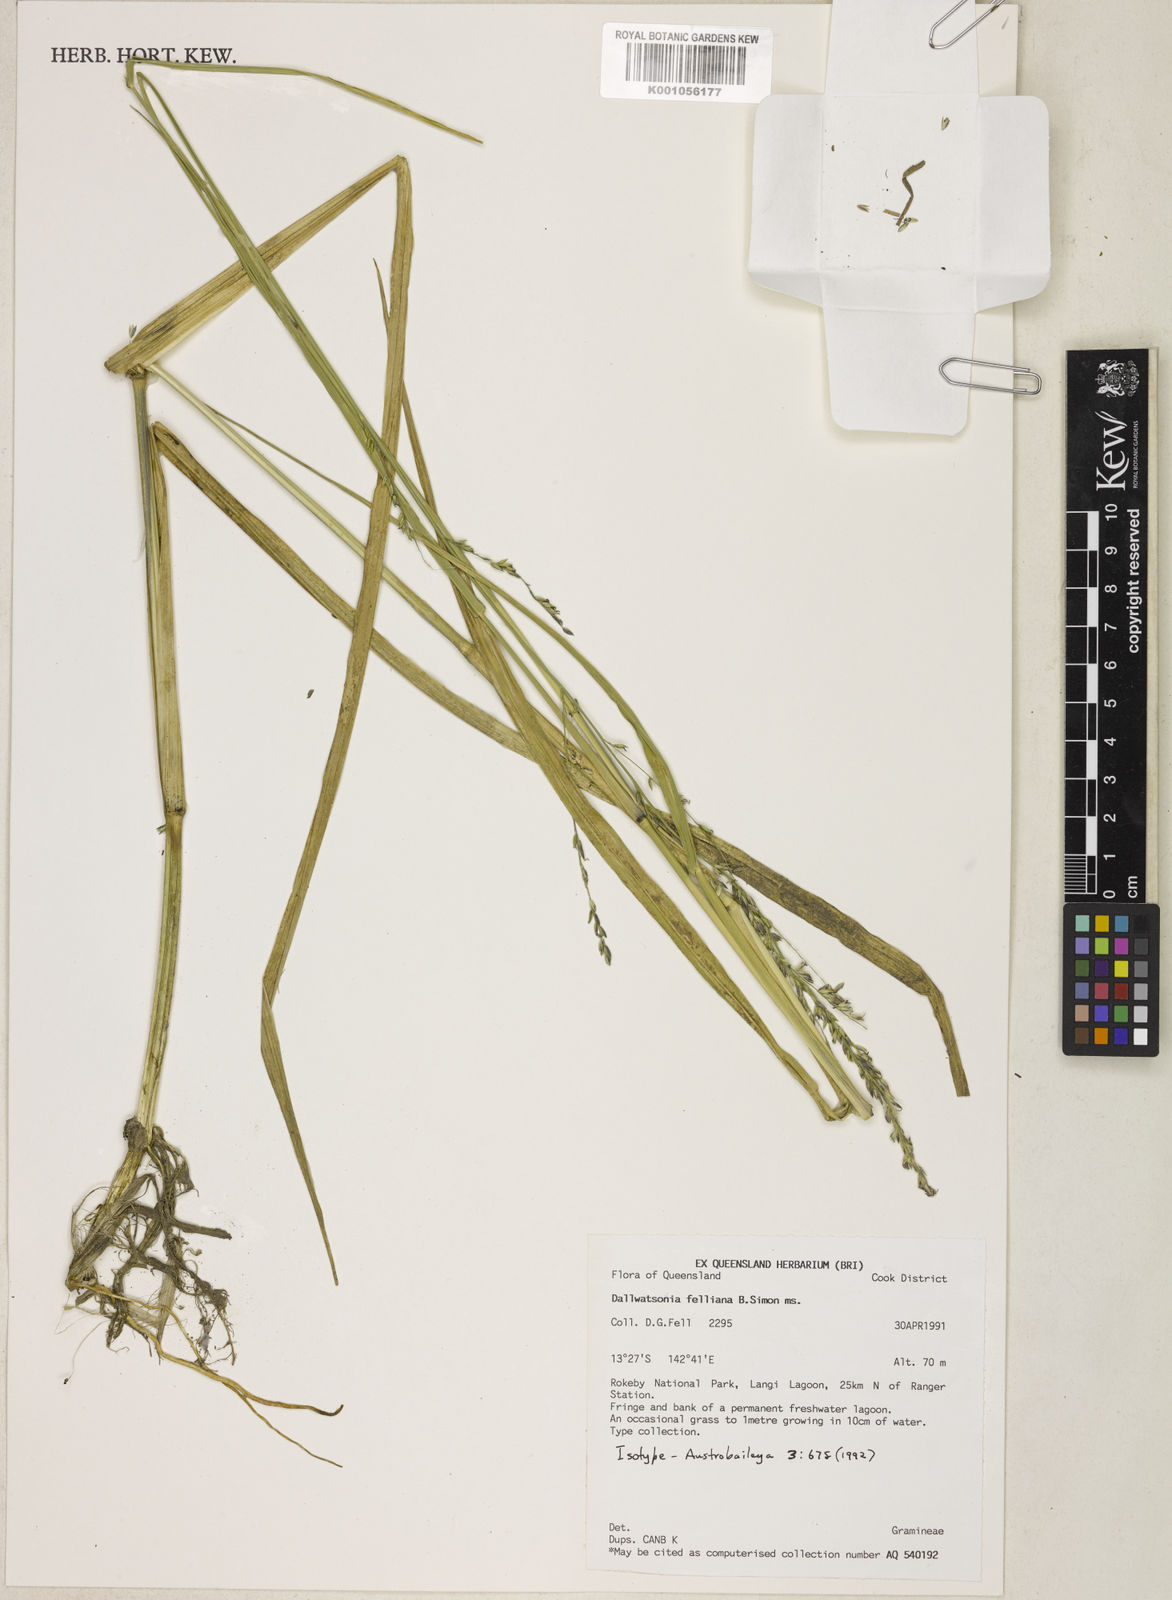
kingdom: Plantae
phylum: Tracheophyta
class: Liliopsida
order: Poales
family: Poaceae
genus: Hymenachne
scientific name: Hymenachne felliana
